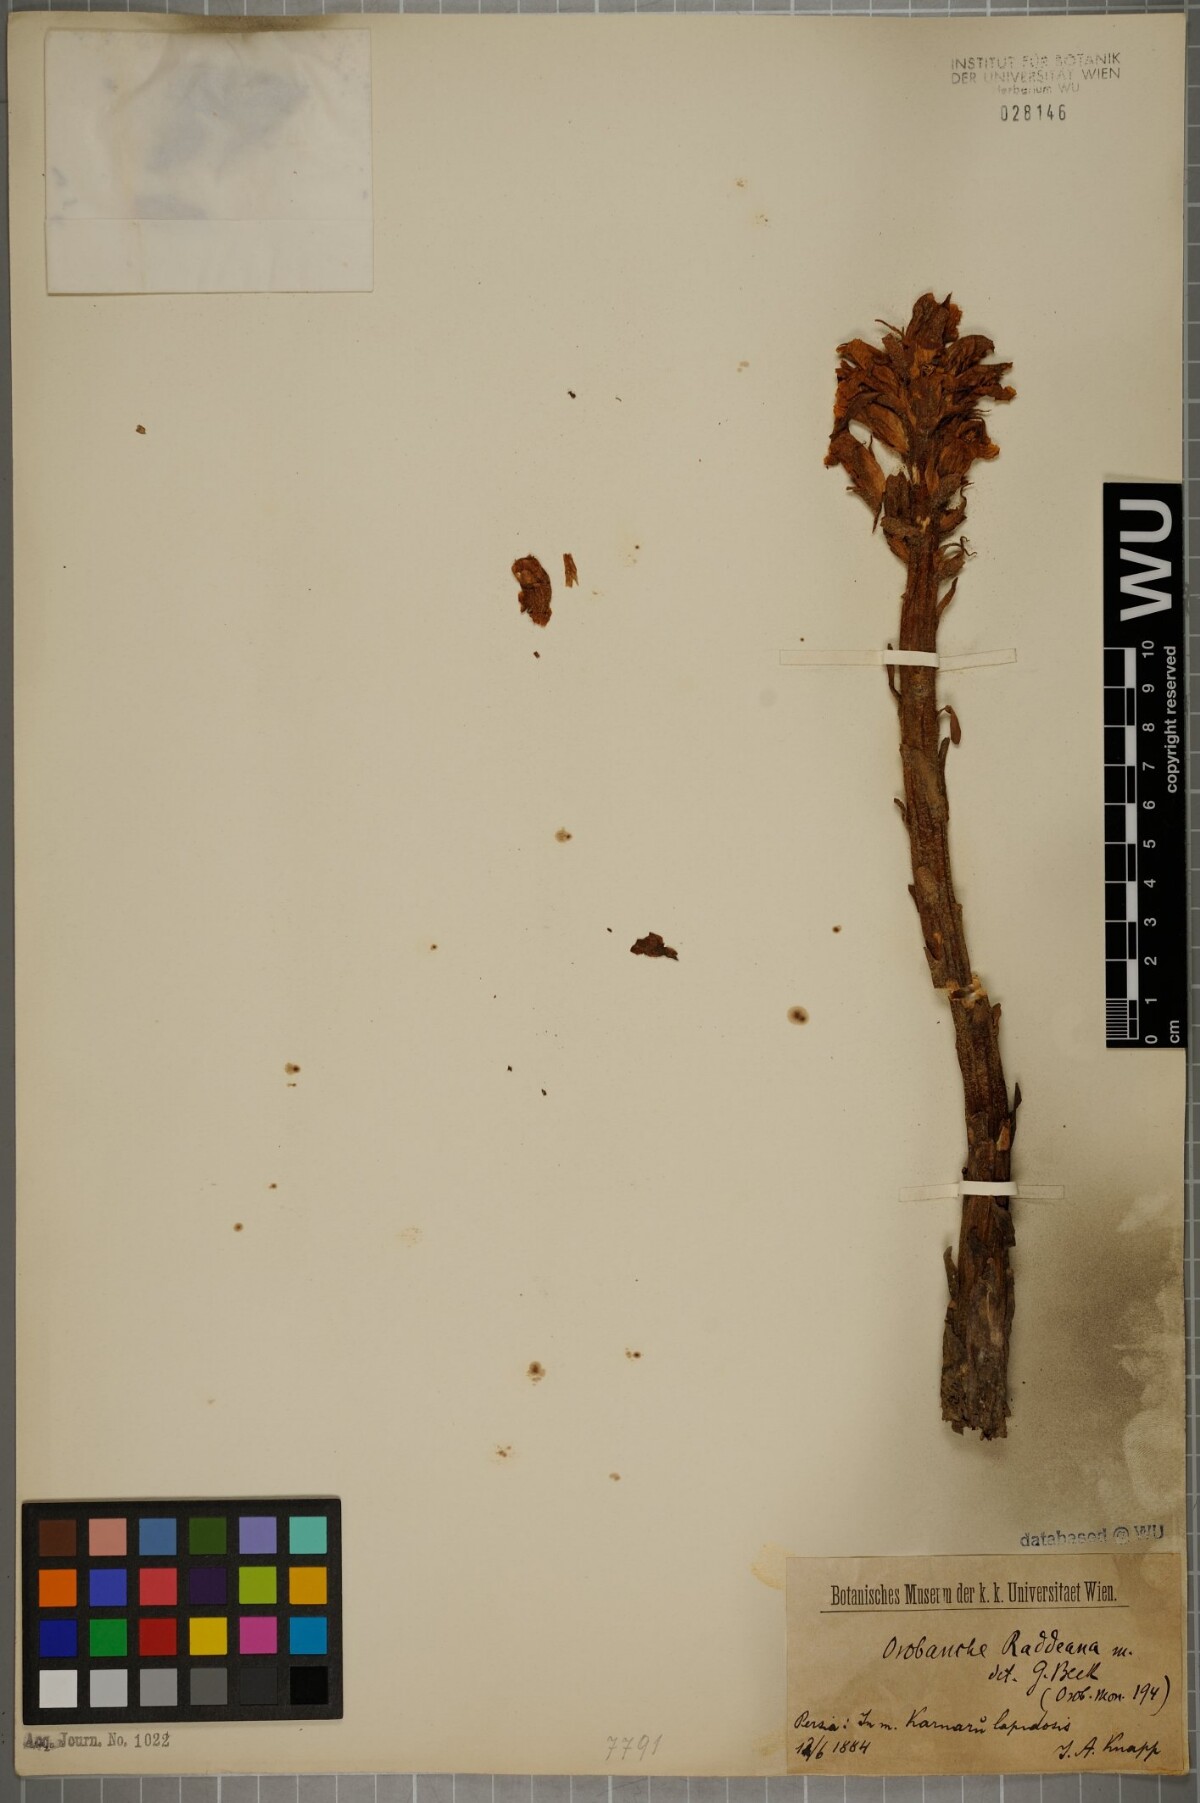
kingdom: Plantae
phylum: Tracheophyta
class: Magnoliopsida
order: Lamiales
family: Orobanchaceae
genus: Orobanche
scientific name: Orobanche alba
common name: Thyme broomrape
